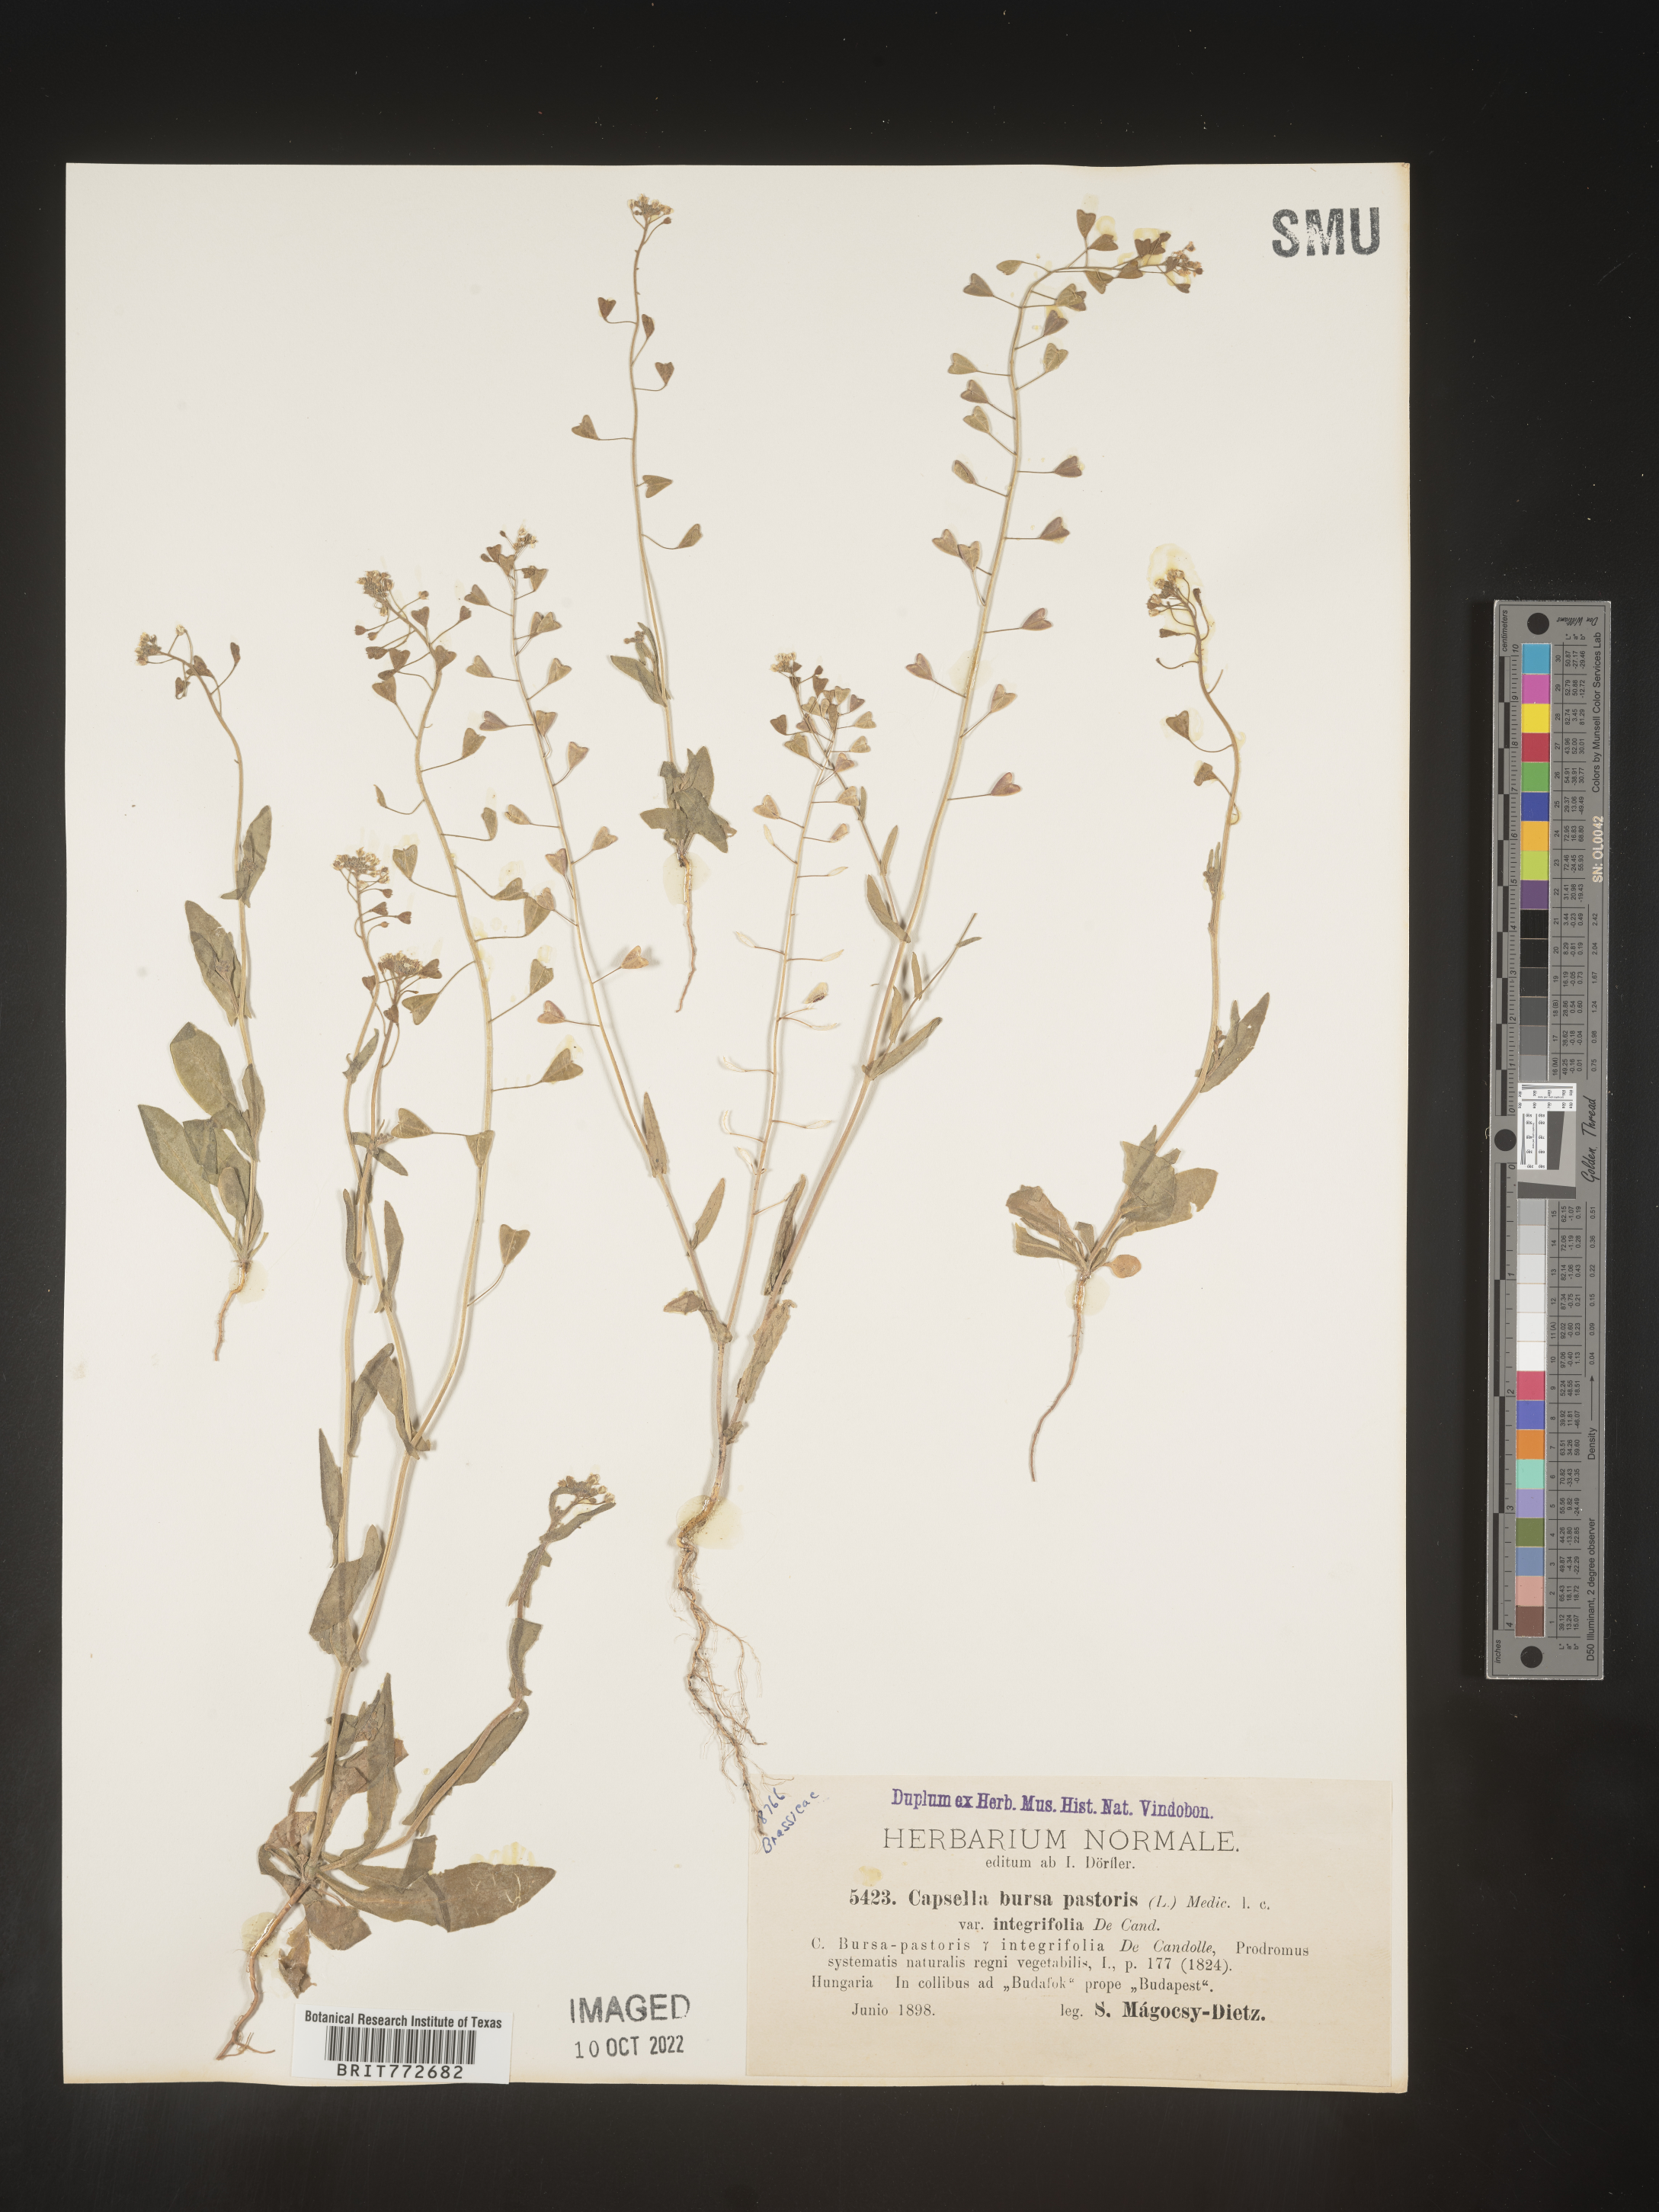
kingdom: Plantae
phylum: Tracheophyta
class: Magnoliopsida
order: Brassicales
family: Brassicaceae
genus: Capsella
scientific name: Capsella
